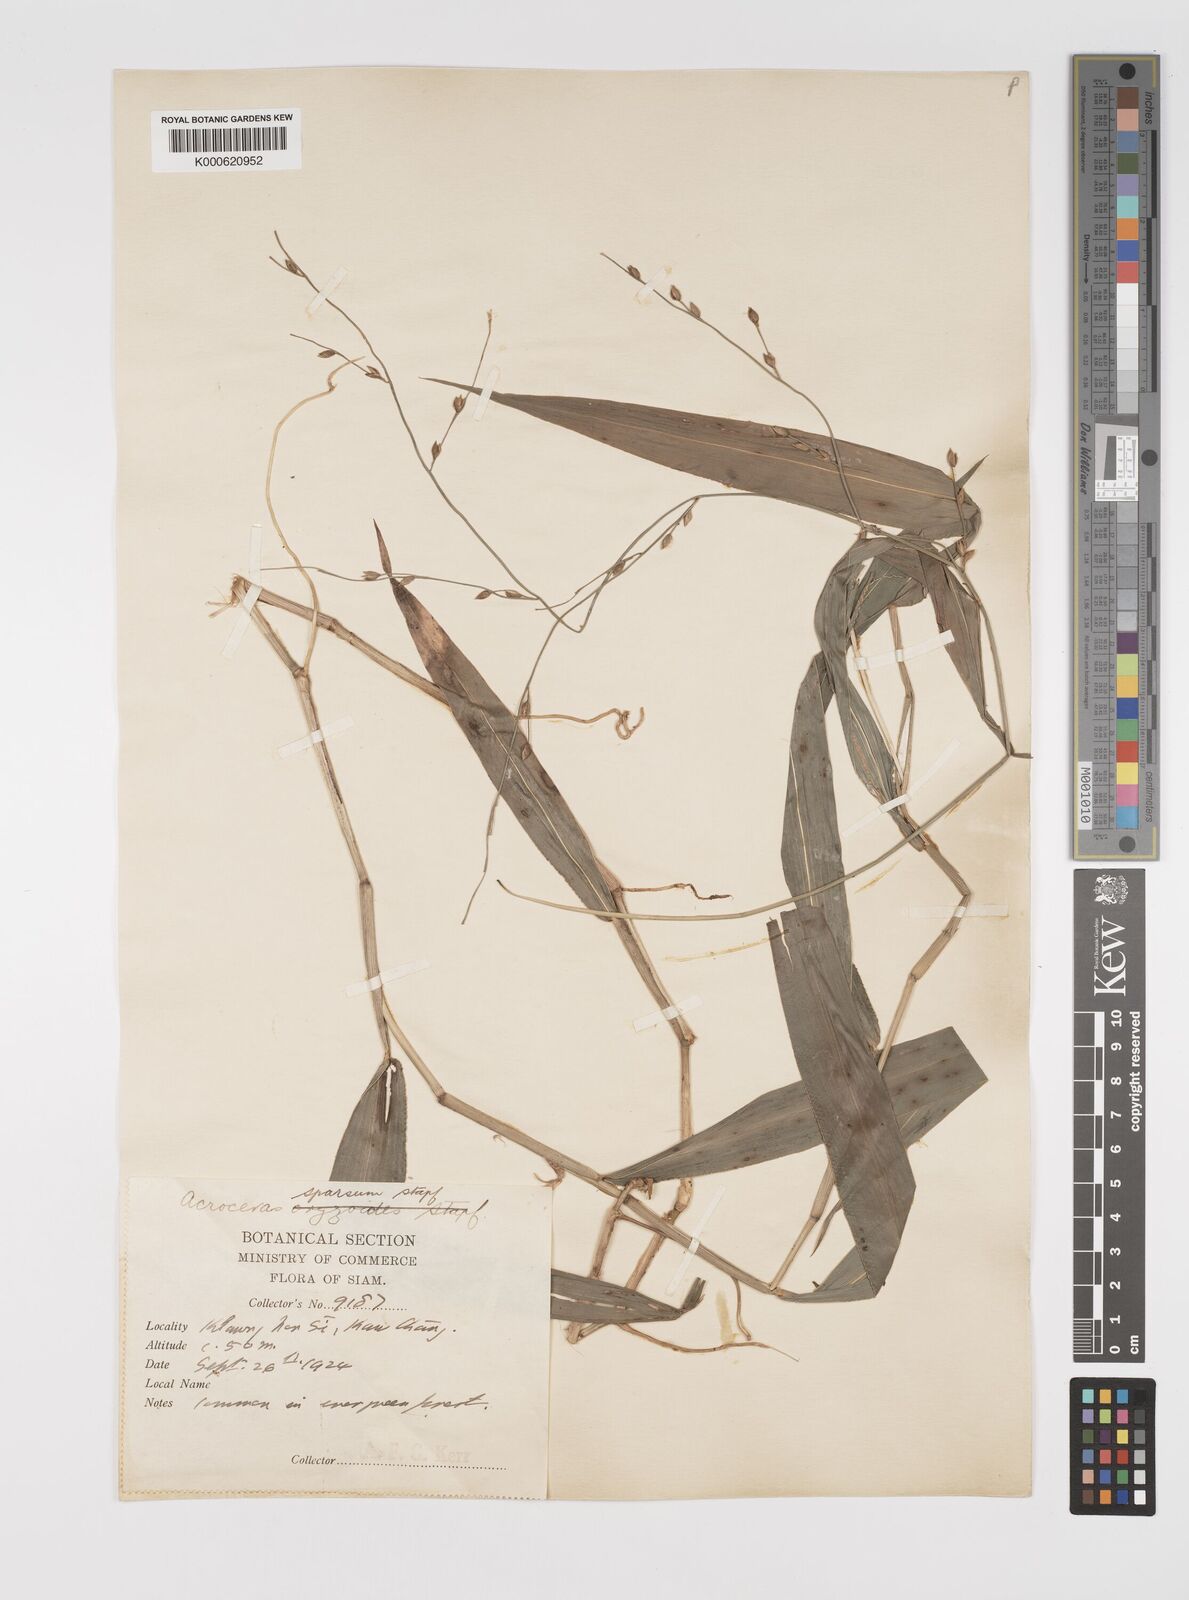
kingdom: Plantae
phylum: Tracheophyta
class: Liliopsida
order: Poales
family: Poaceae
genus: Acroceras
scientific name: Acroceras
